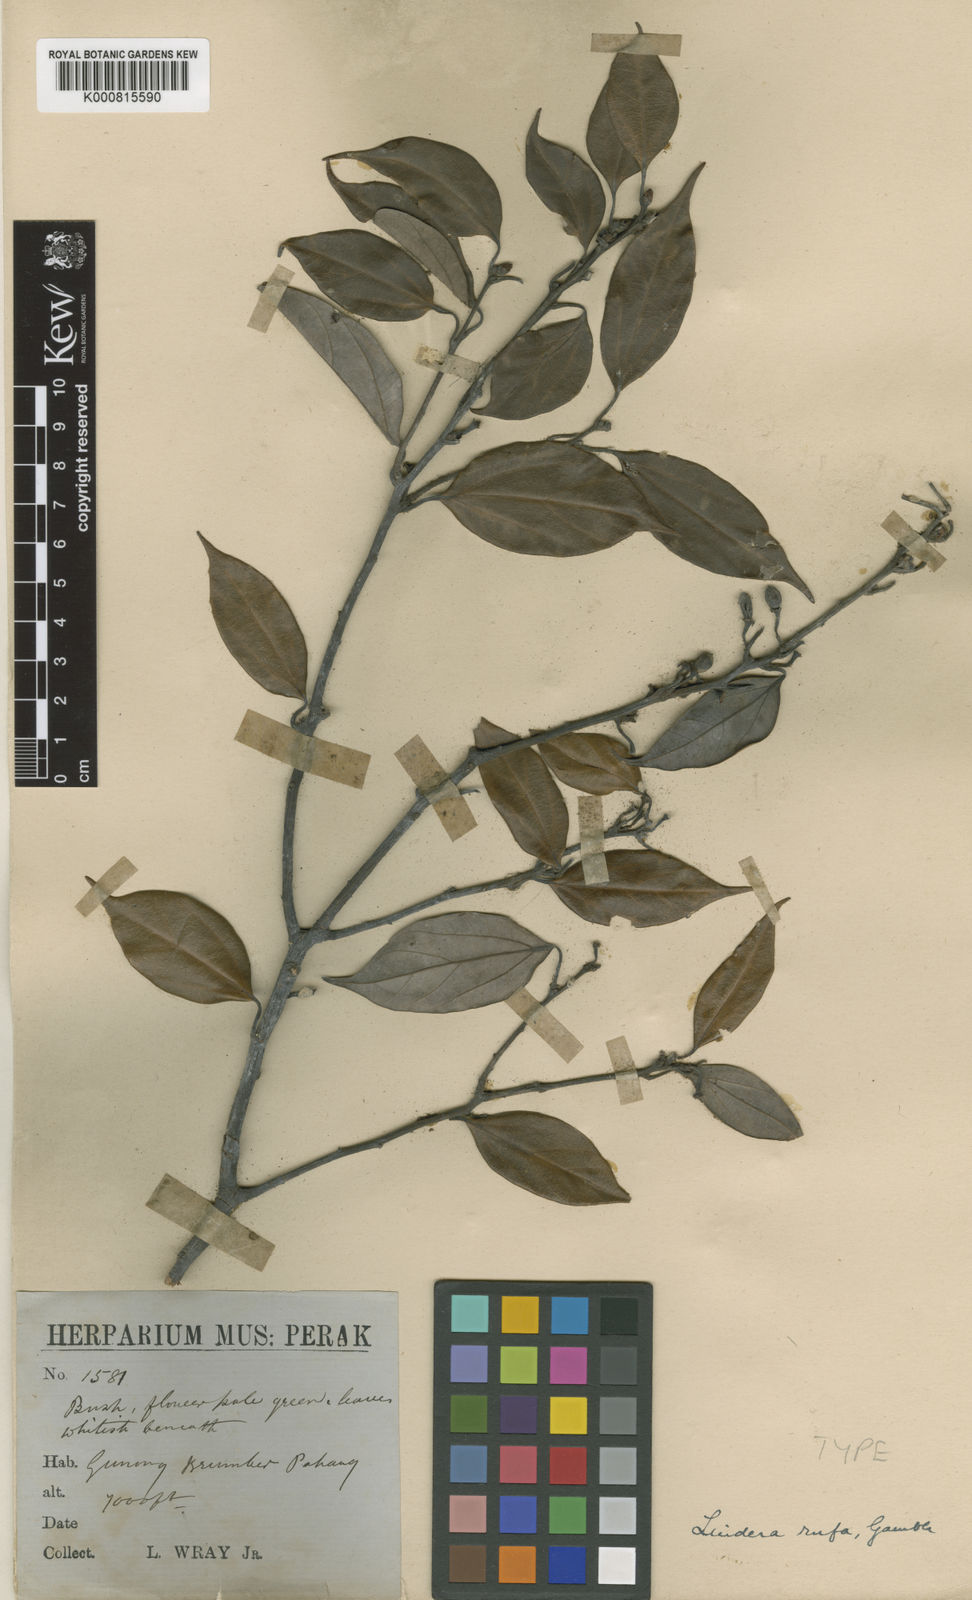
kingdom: Plantae
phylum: Tracheophyta
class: Magnoliopsida
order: Laurales
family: Lauraceae
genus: Lindera
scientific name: Lindera rufa
